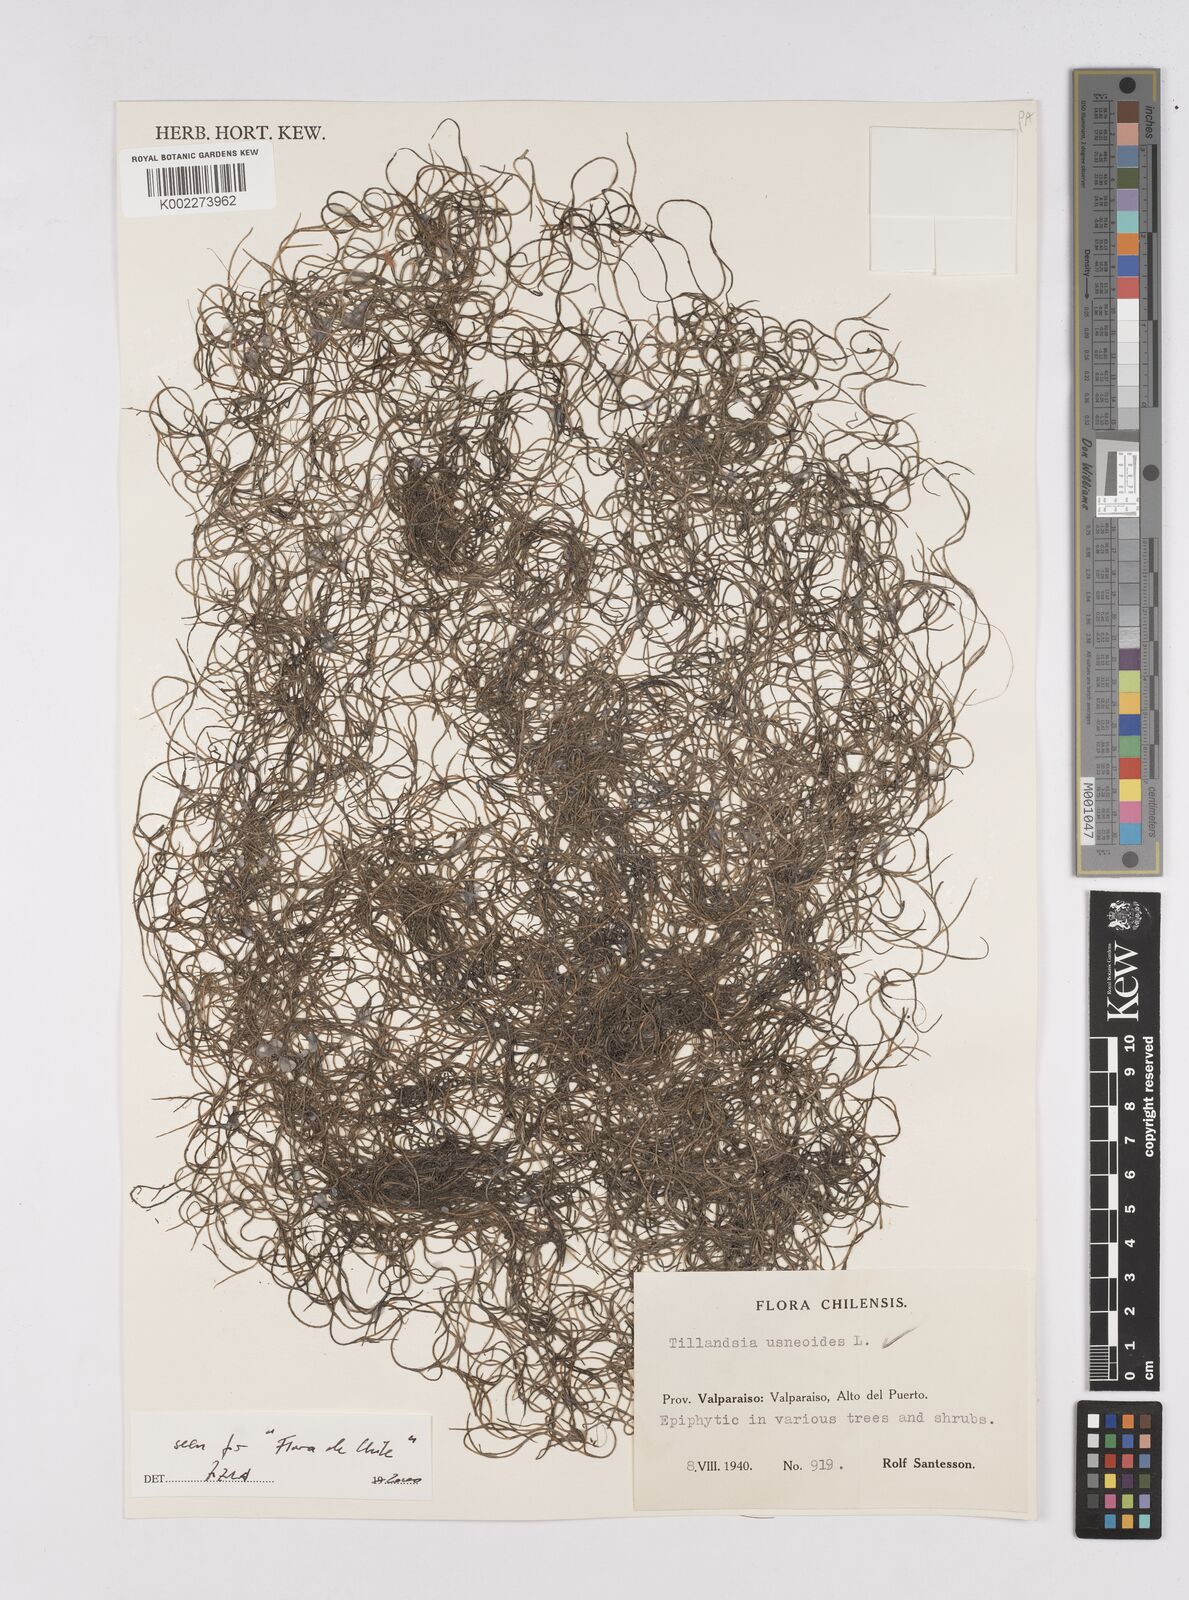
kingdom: Plantae
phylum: Tracheophyta
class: Liliopsida
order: Poales
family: Bromeliaceae
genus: Tillandsia
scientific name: Tillandsia usneoides
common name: Spanish moss
